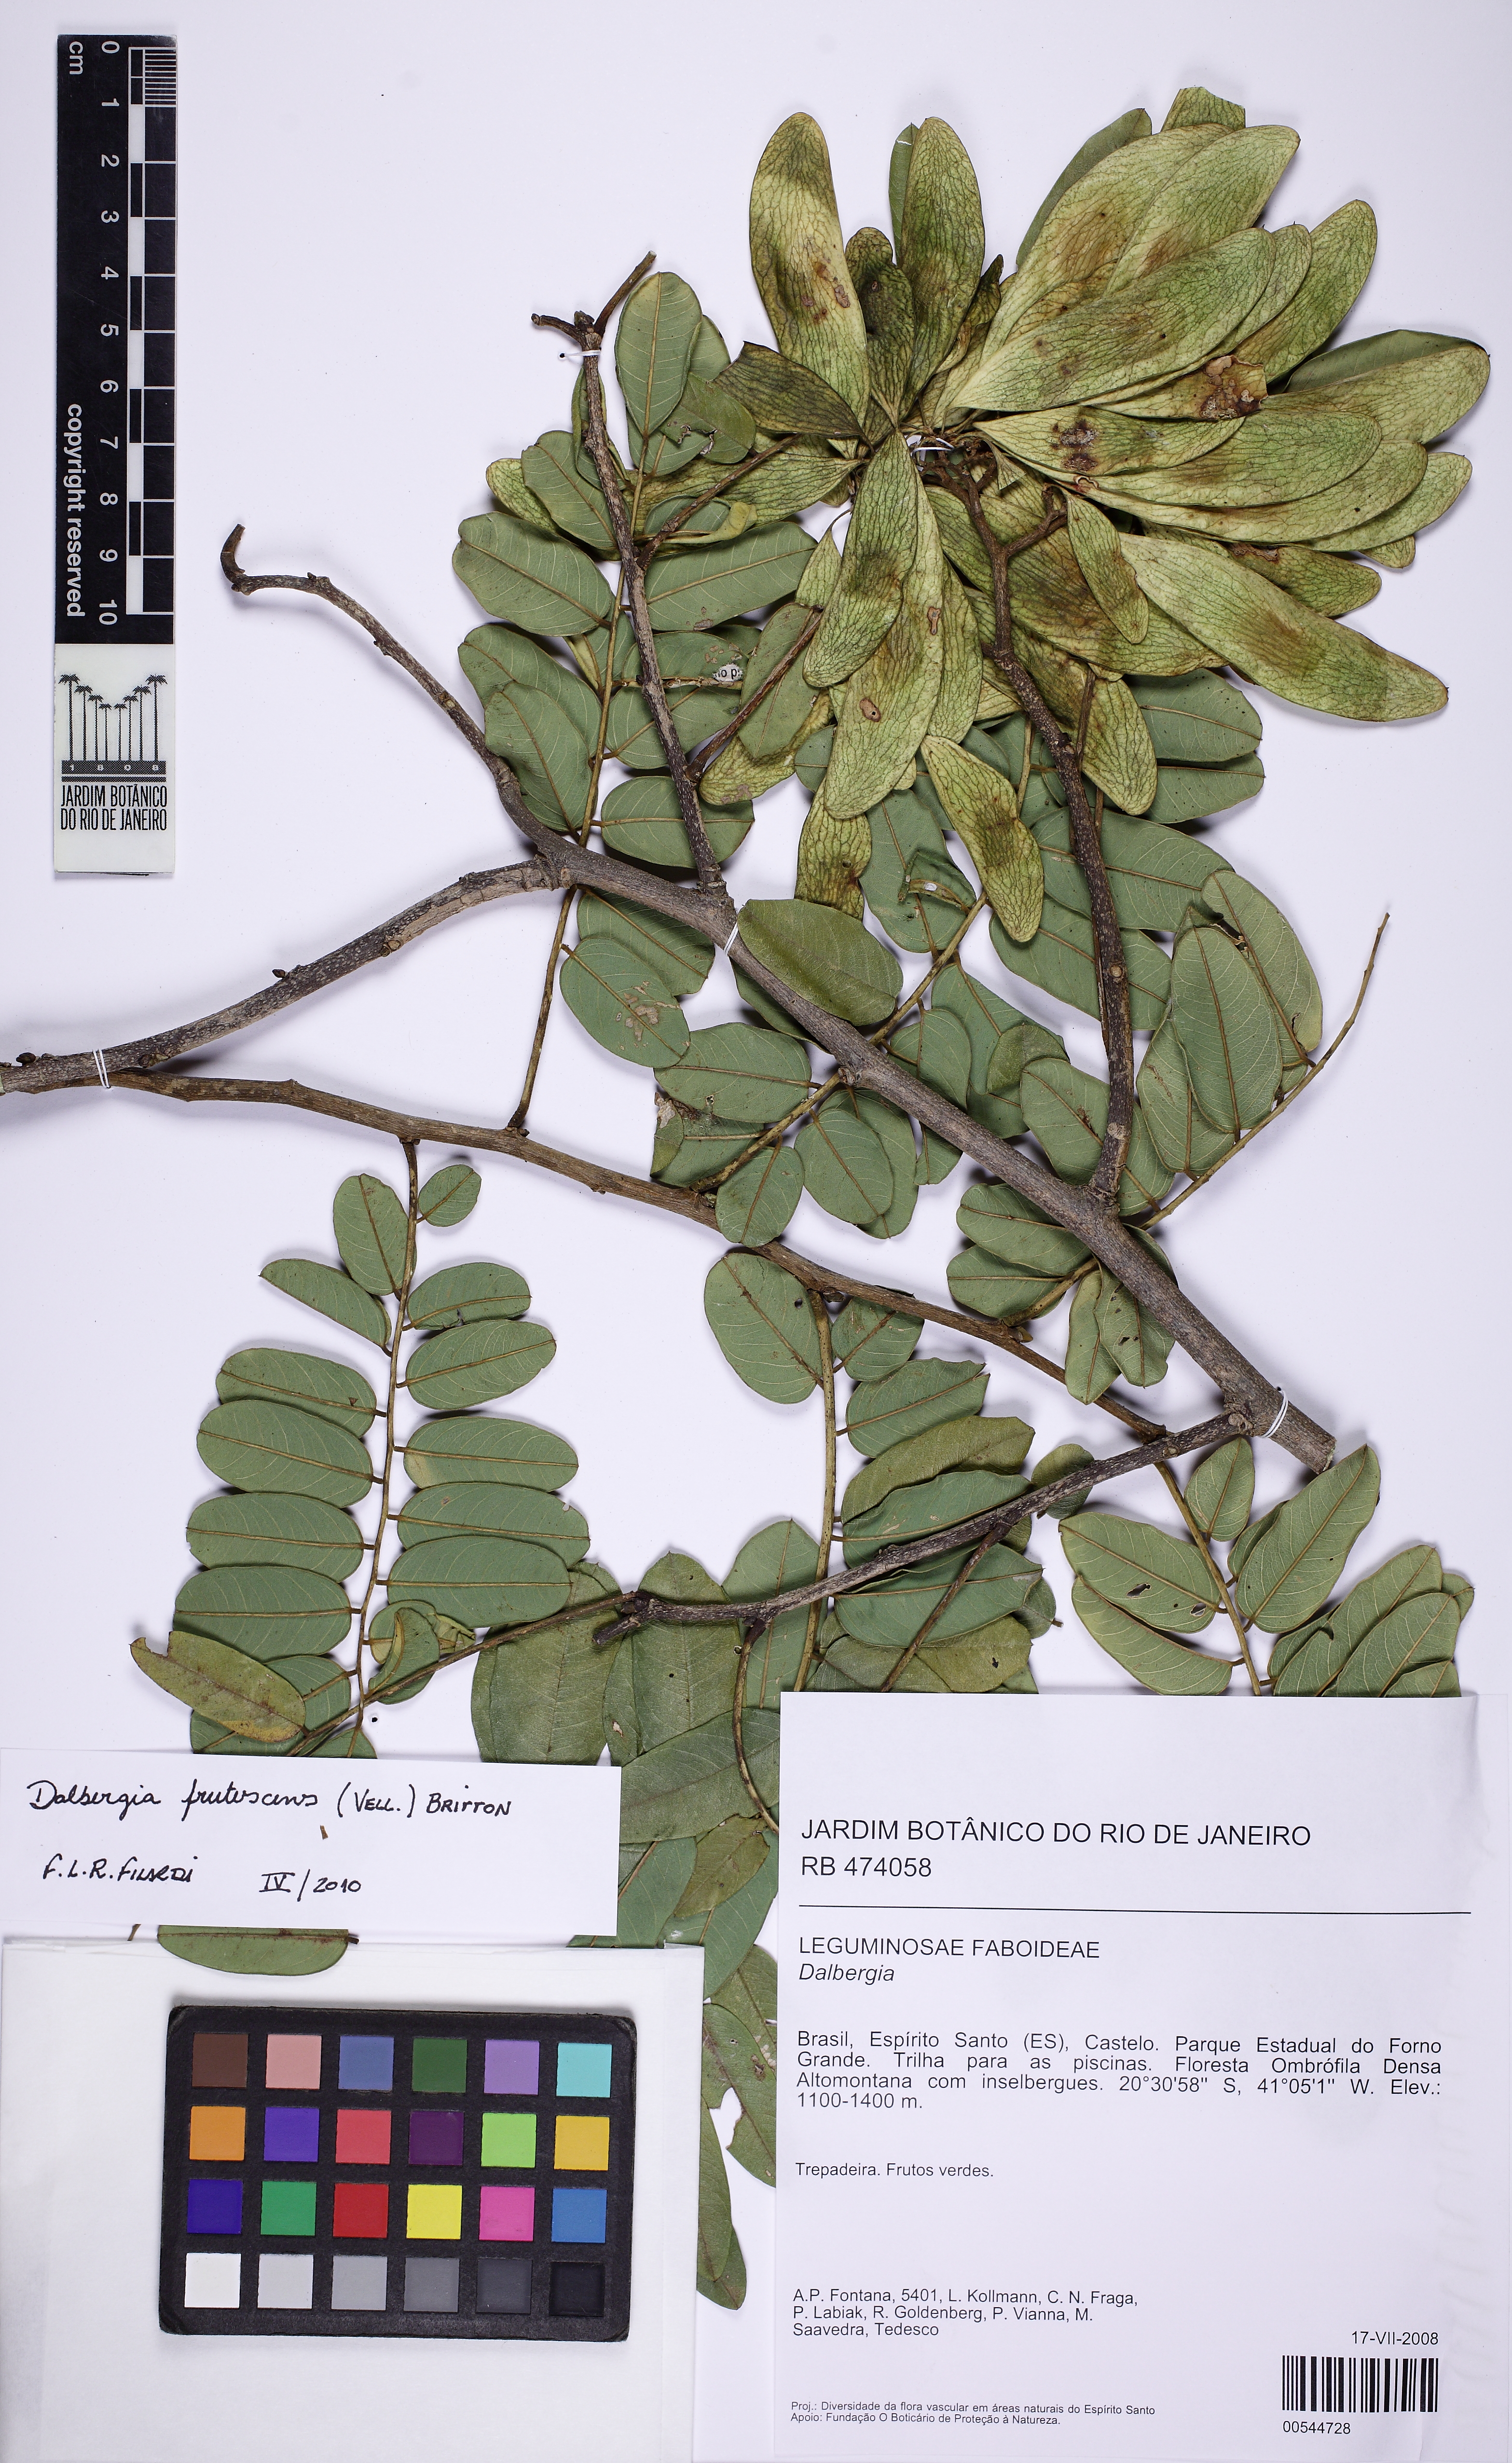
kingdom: Plantae
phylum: Tracheophyta
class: Magnoliopsida
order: Fabales
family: Fabaceae
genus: Dalbergia
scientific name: Dalbergia frutescens
